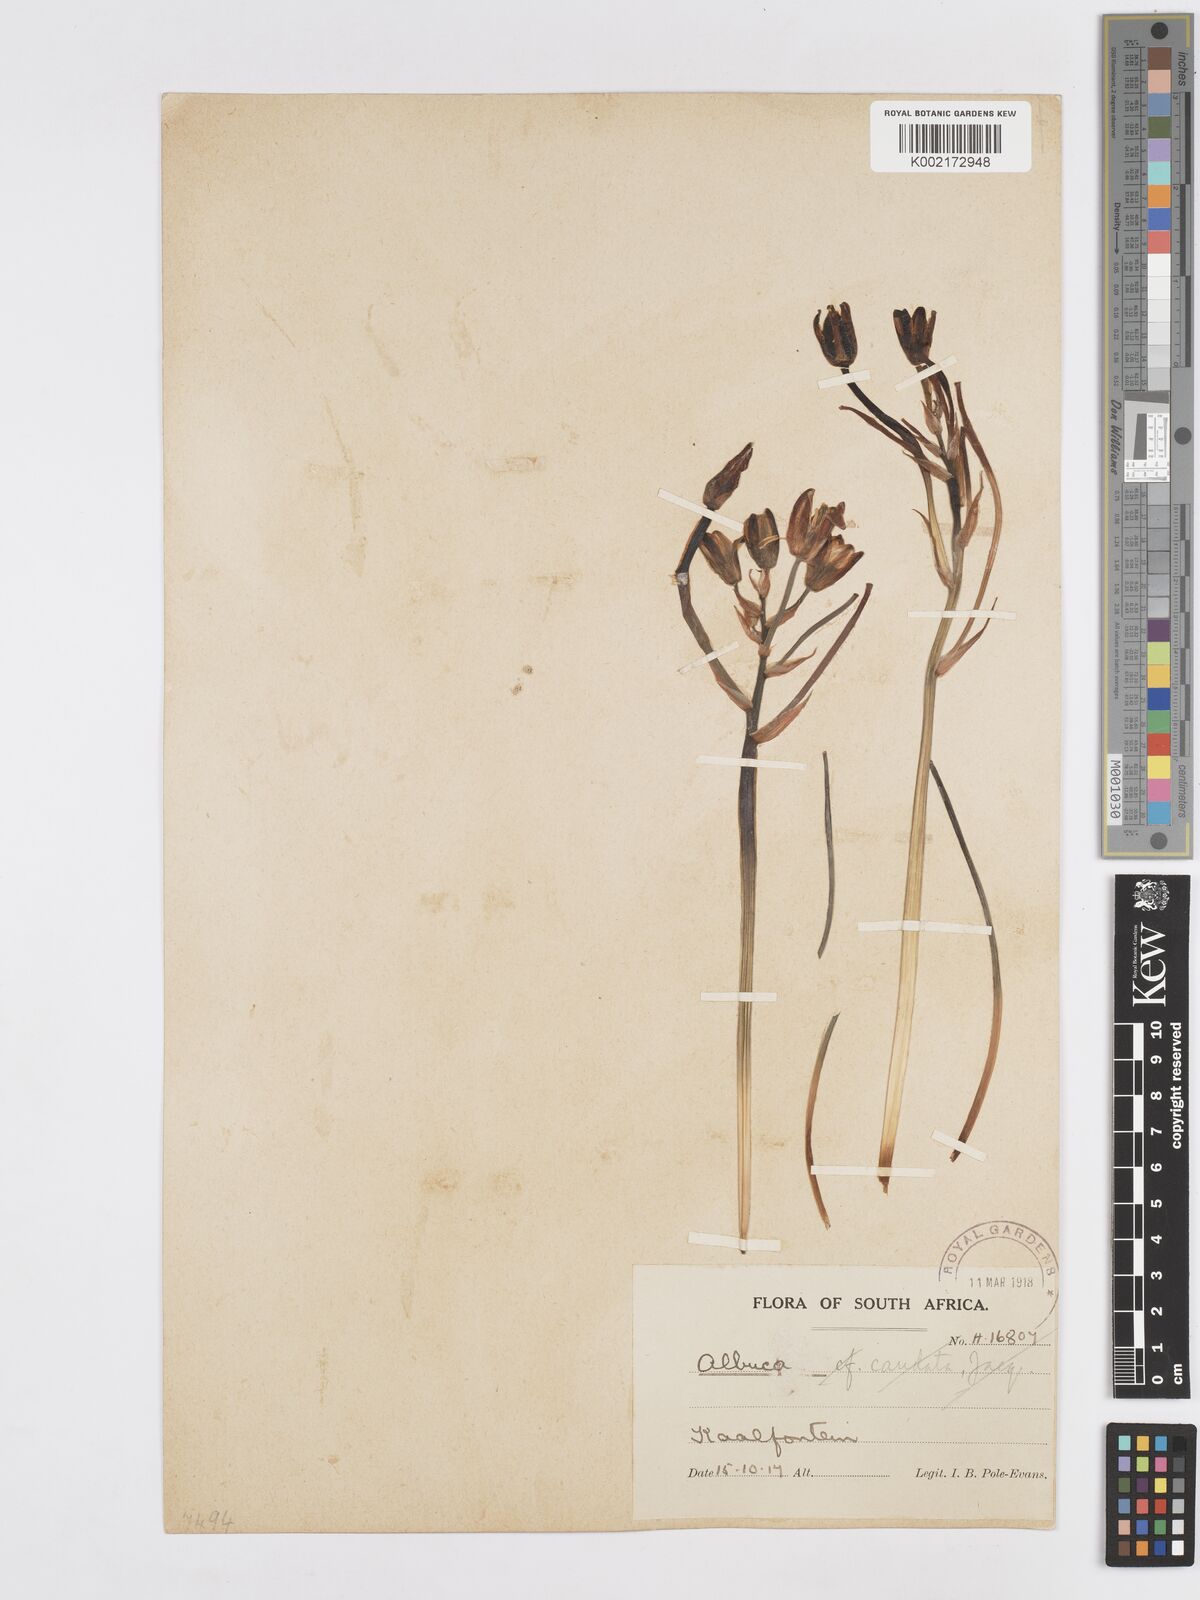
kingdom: Plantae
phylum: Tracheophyta
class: Liliopsida
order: Asparagales
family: Asparagaceae
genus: Albuca
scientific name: Albuca setosa
